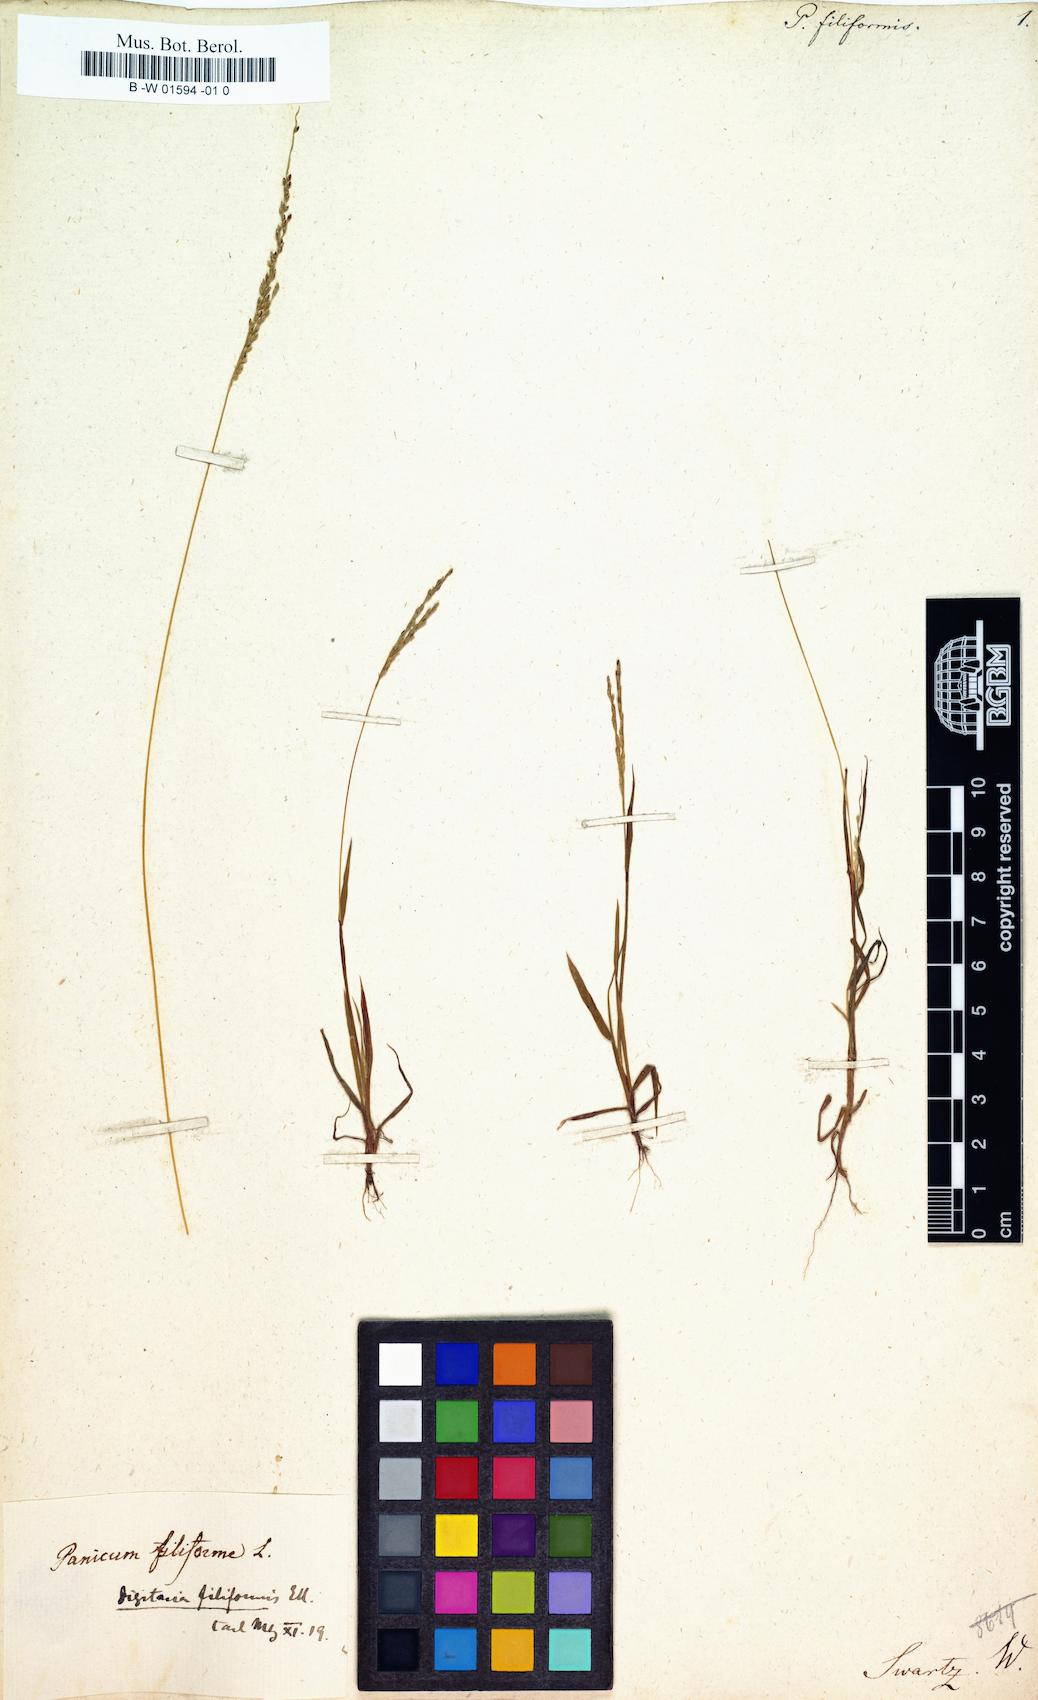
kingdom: Plantae
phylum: Tracheophyta
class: Liliopsida
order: Poales
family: Poaceae
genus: Paspalus
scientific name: Paspalus
